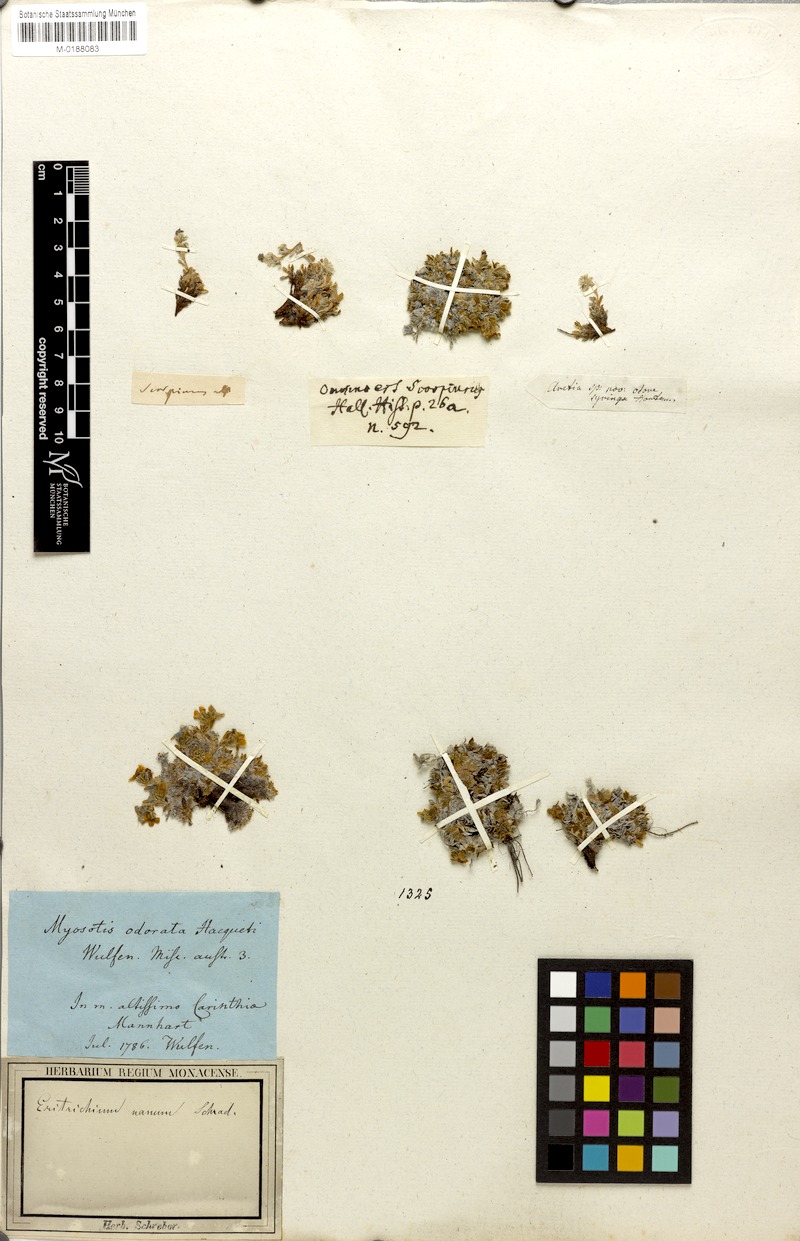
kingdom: Plantae
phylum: Tracheophyta
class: Magnoliopsida
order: Boraginales
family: Boraginaceae
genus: Eritrichium
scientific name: Eritrichium nanum
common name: King-of-the-alps
